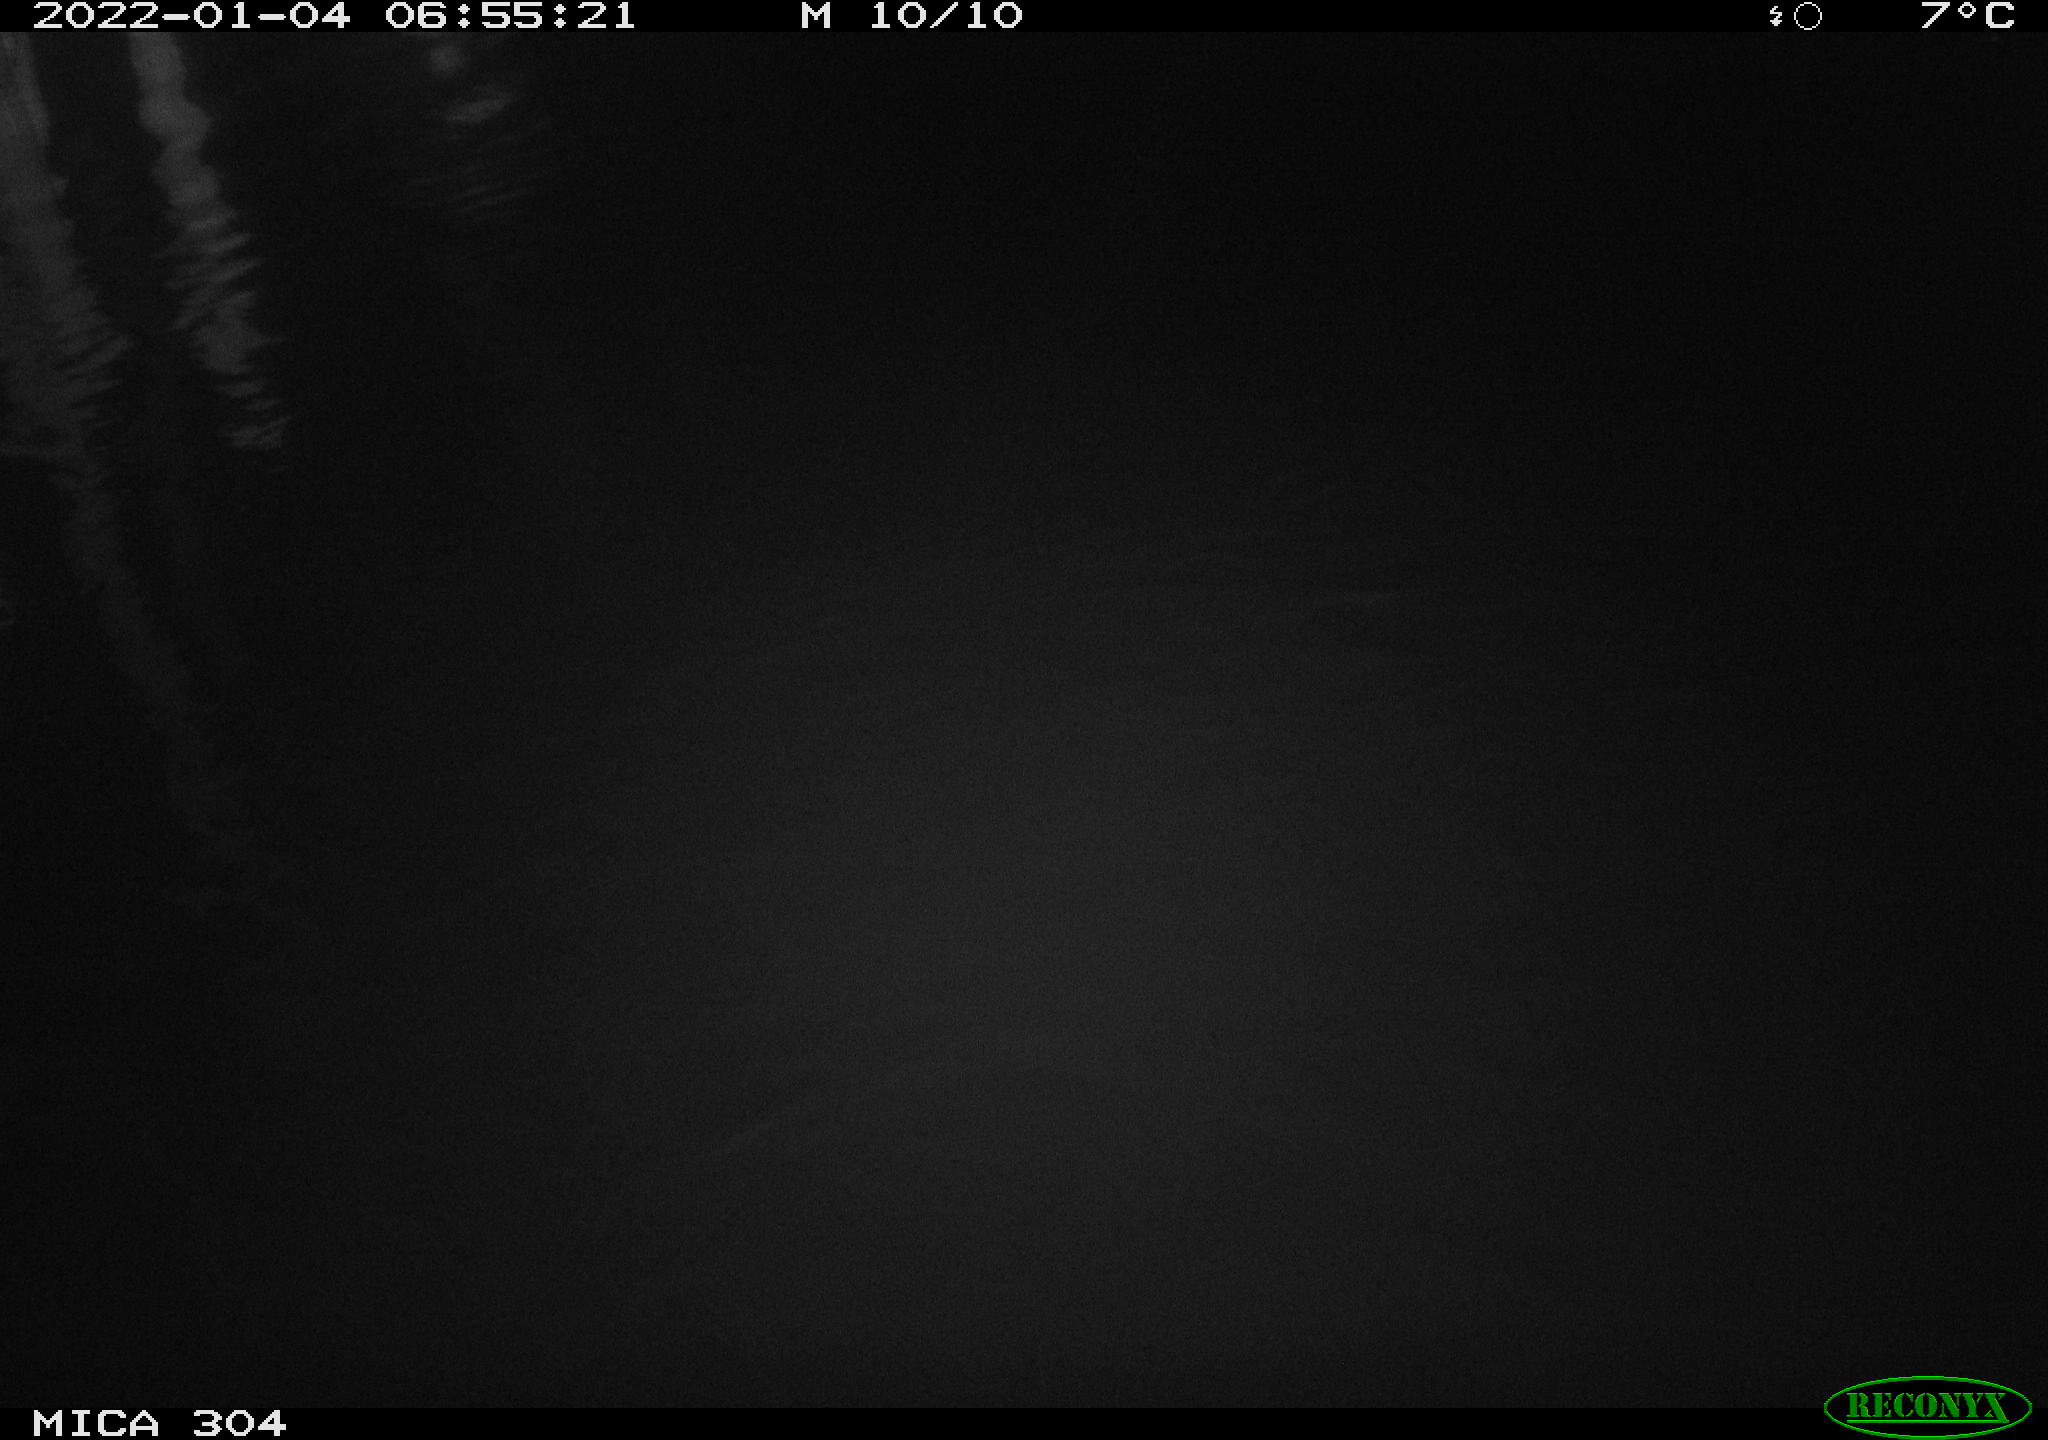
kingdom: Animalia
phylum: Chordata
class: Aves
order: Gruiformes
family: Rallidae
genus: Fulica
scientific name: Fulica atra
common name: Eurasian coot
